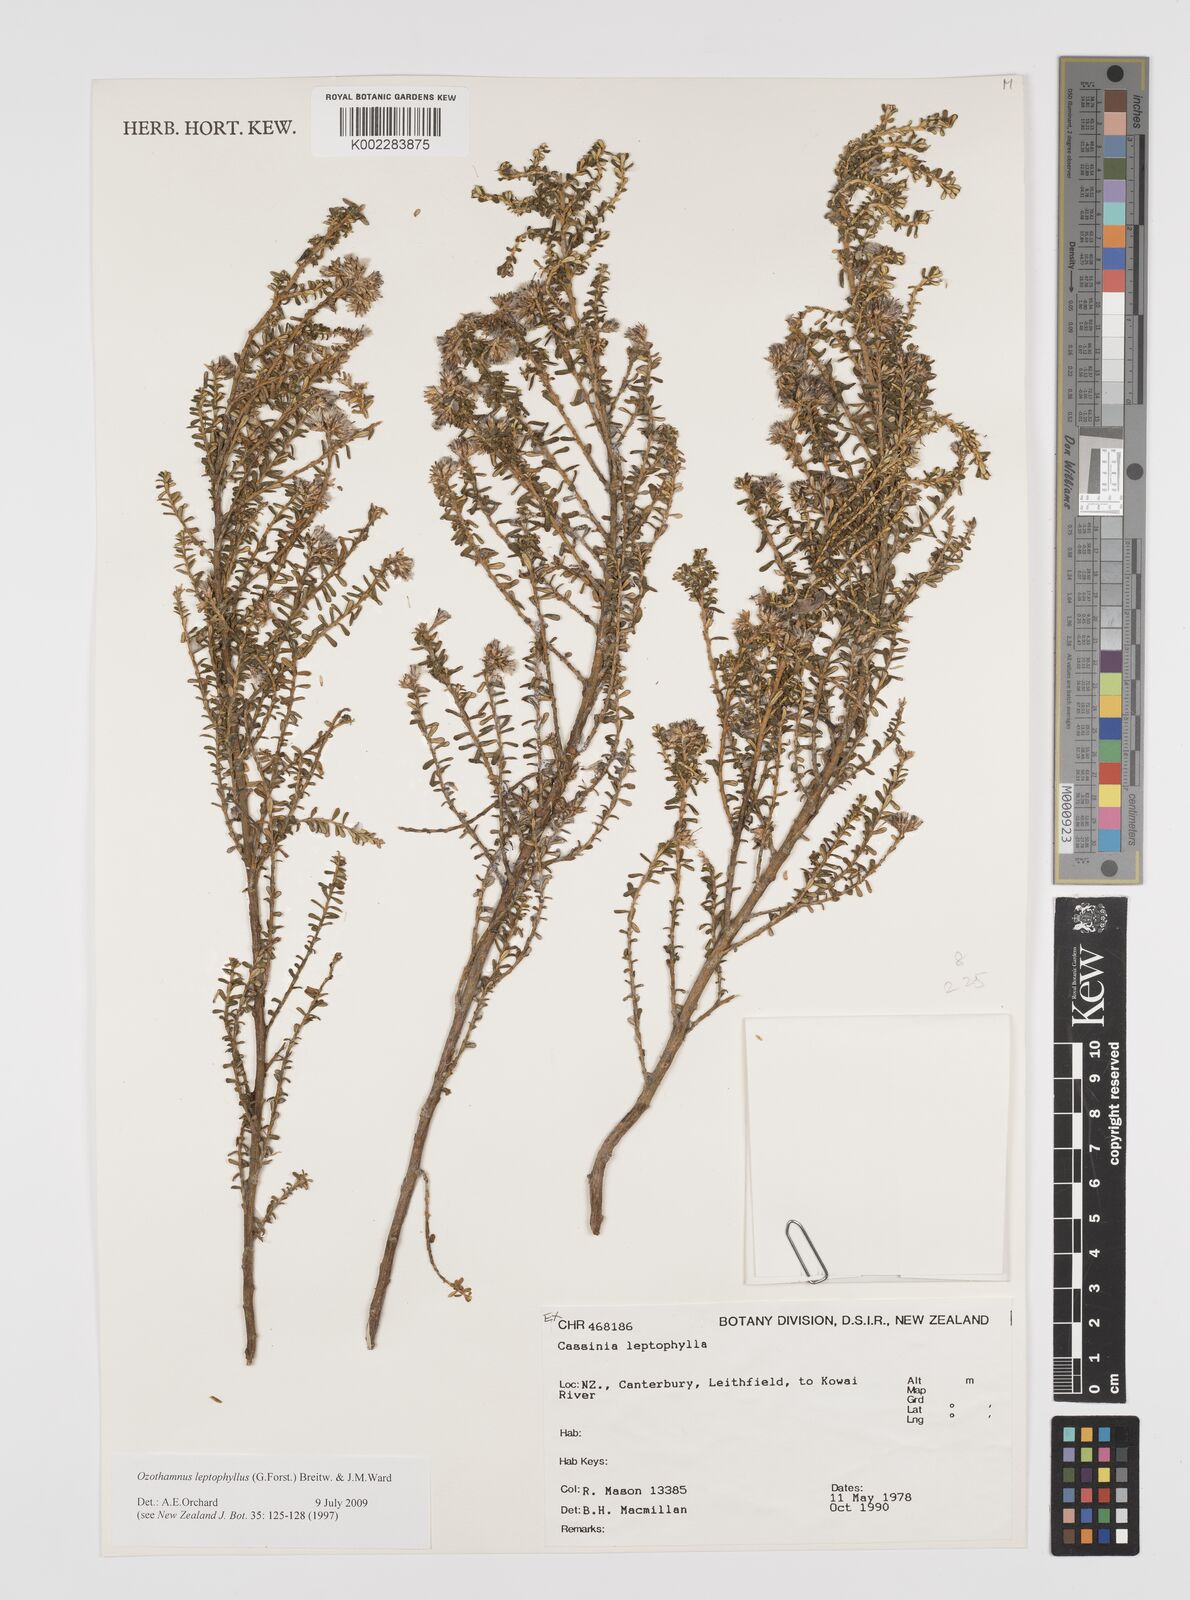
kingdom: Plantae
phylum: Tracheophyta
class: Magnoliopsida
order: Asterales
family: Asteraceae
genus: Ozothamnus
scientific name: Ozothamnus leptophyllus
